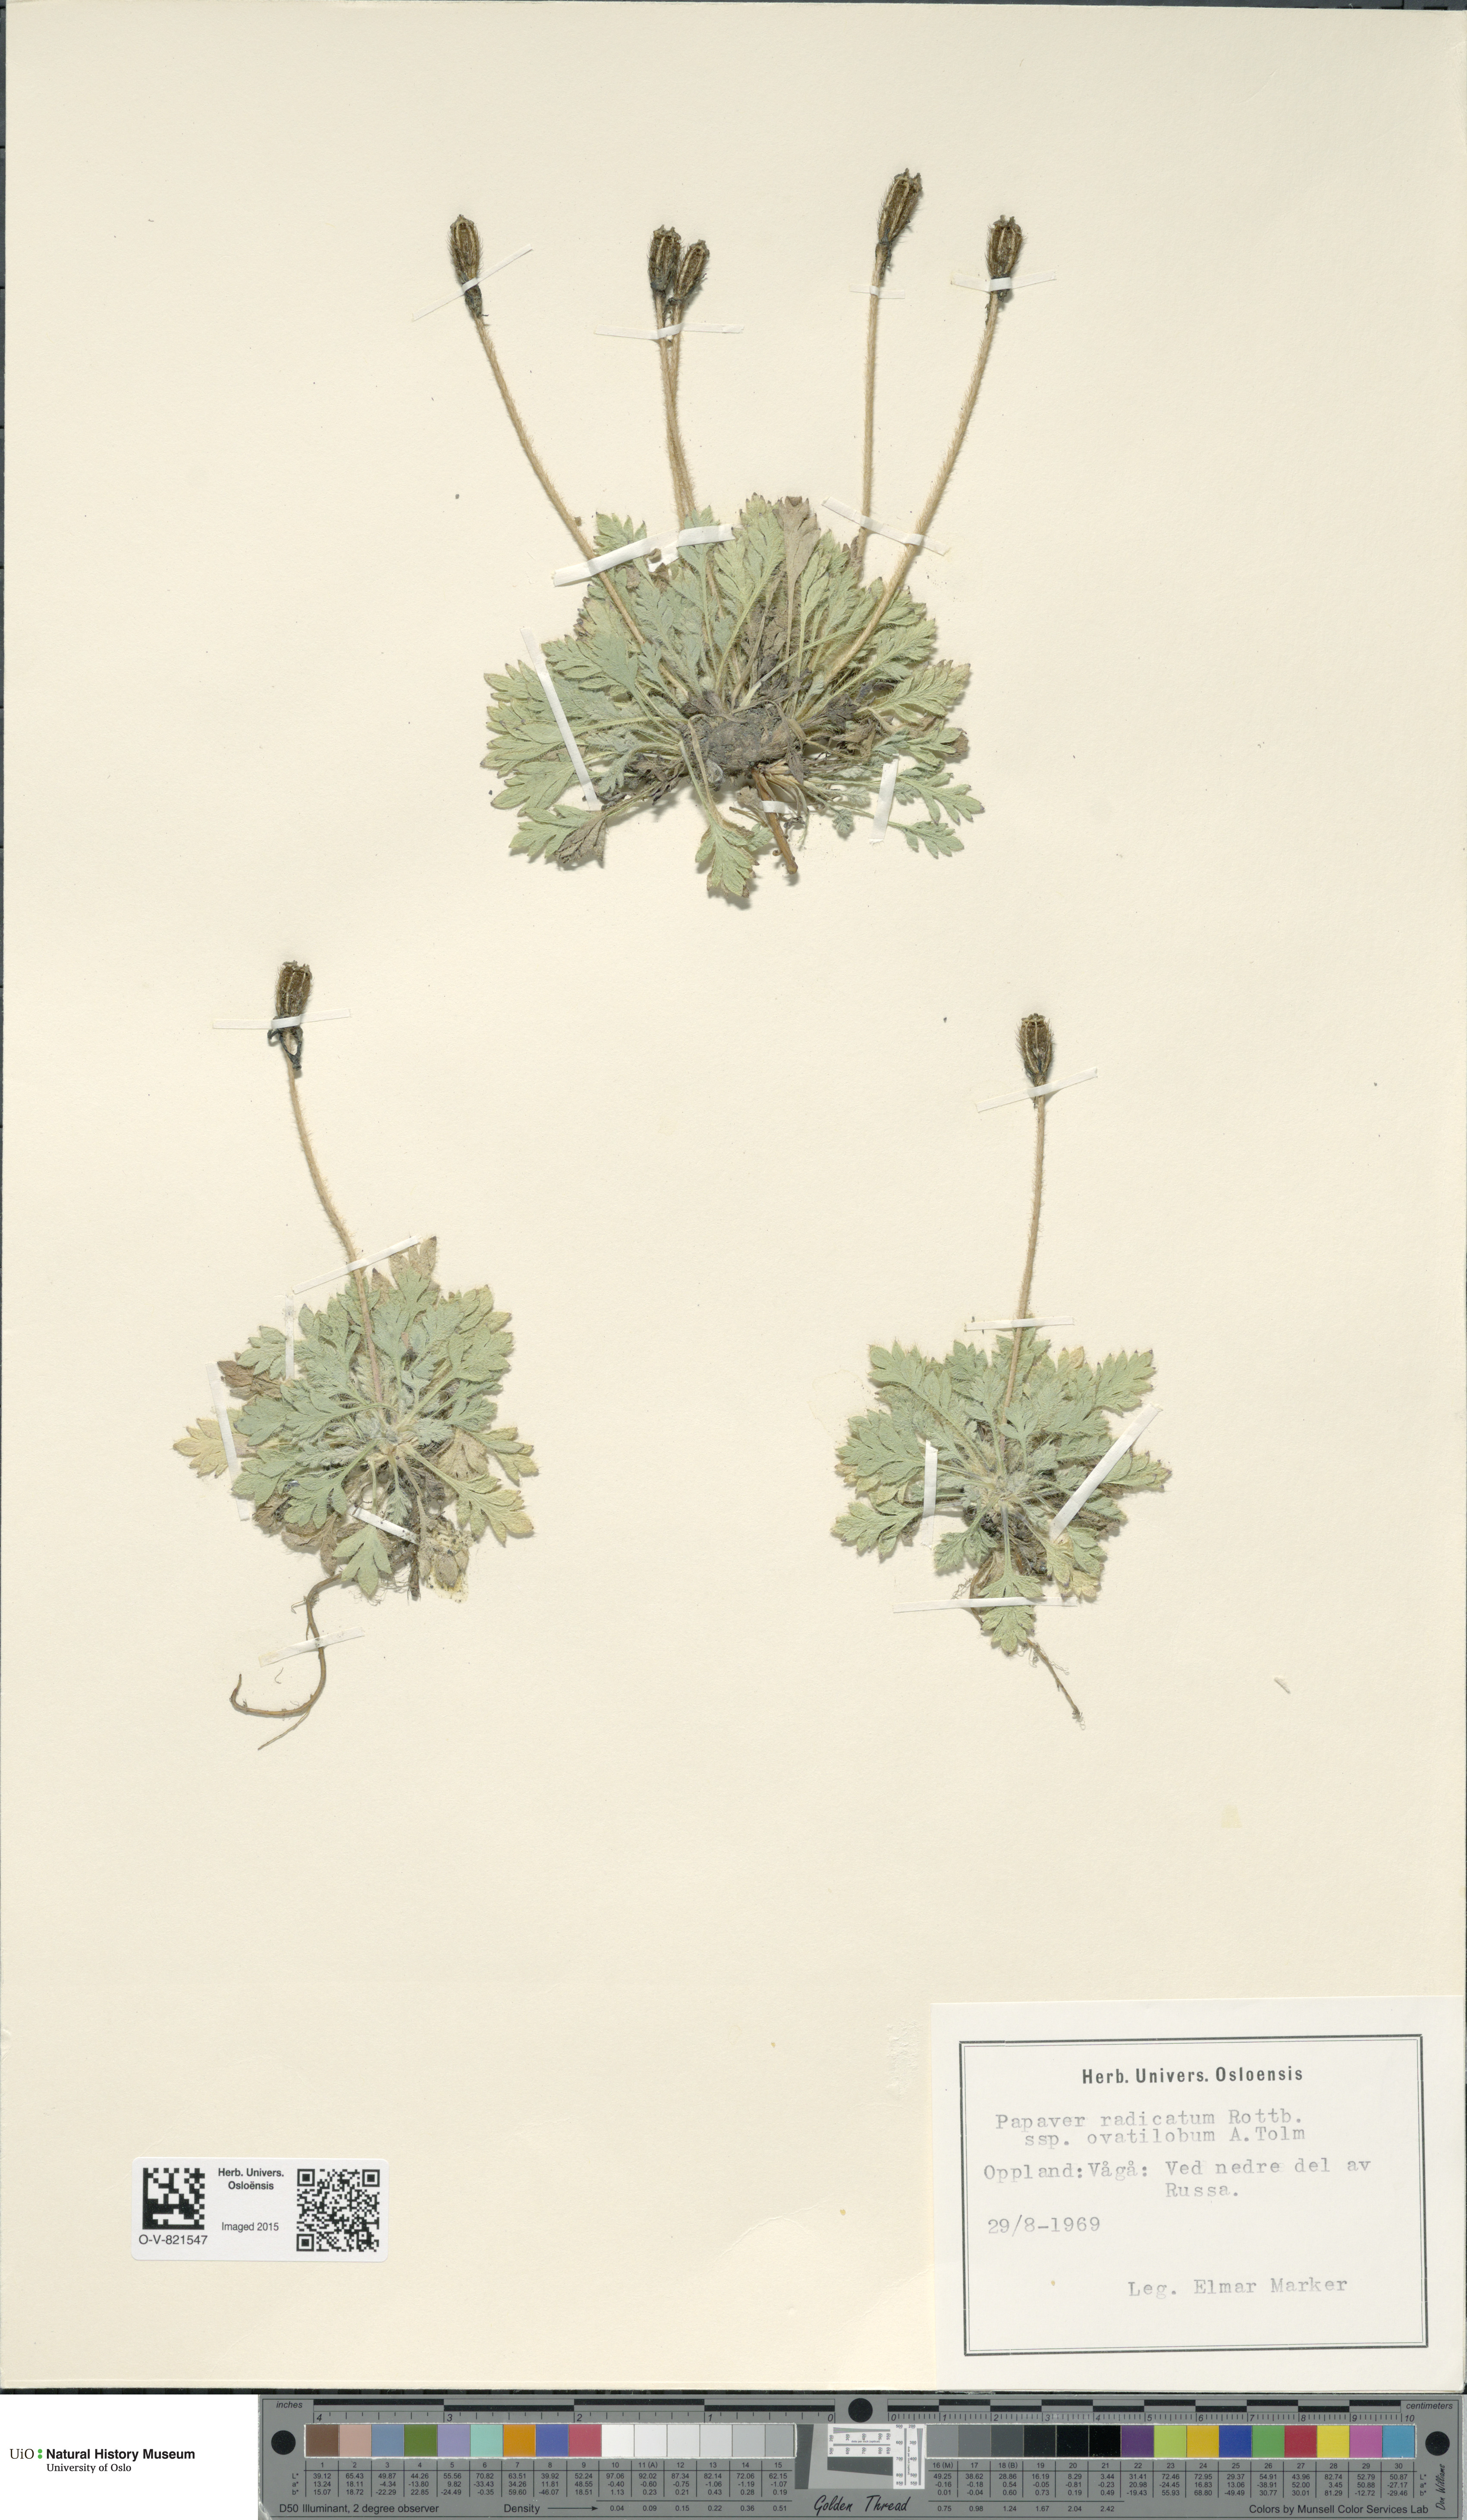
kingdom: Plantae
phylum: Tracheophyta
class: Magnoliopsida
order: Ranunculales
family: Papaveraceae
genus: Papaver
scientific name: Papaver radicatum
